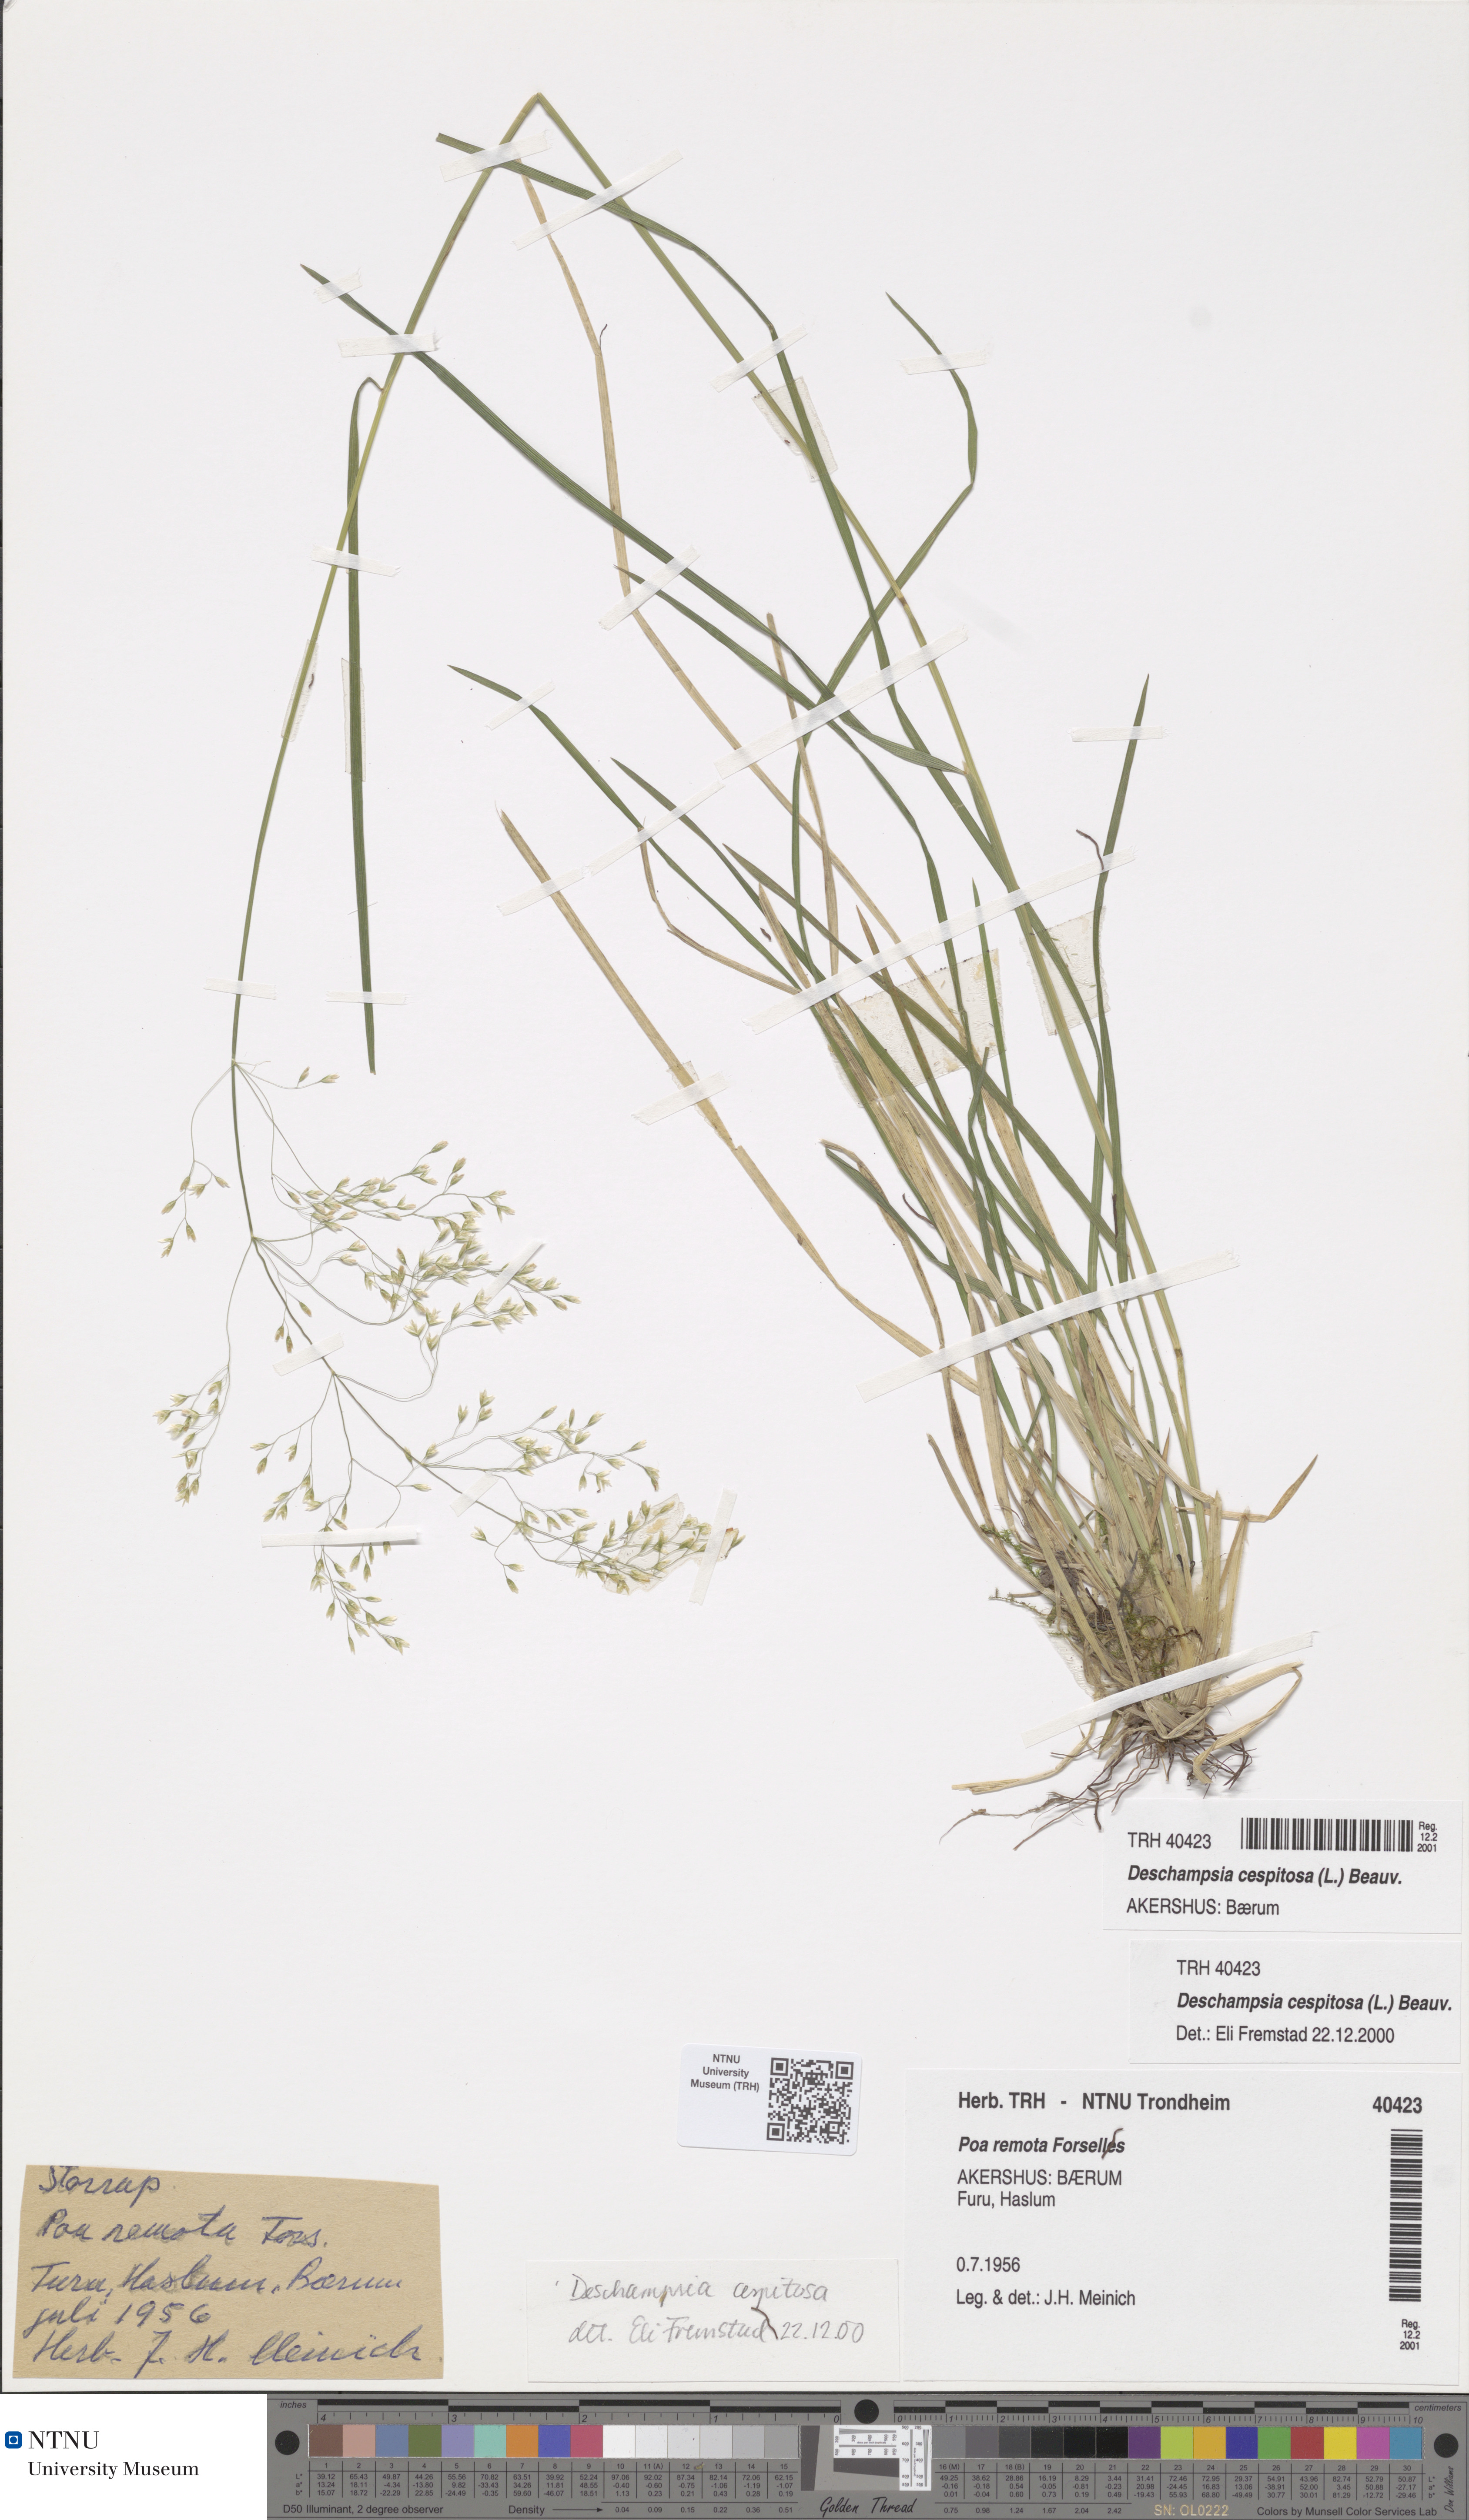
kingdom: Plantae
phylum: Tracheophyta
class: Liliopsida
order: Poales
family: Poaceae
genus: Deschampsia
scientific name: Deschampsia cespitosa
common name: Tufted hair-grass
